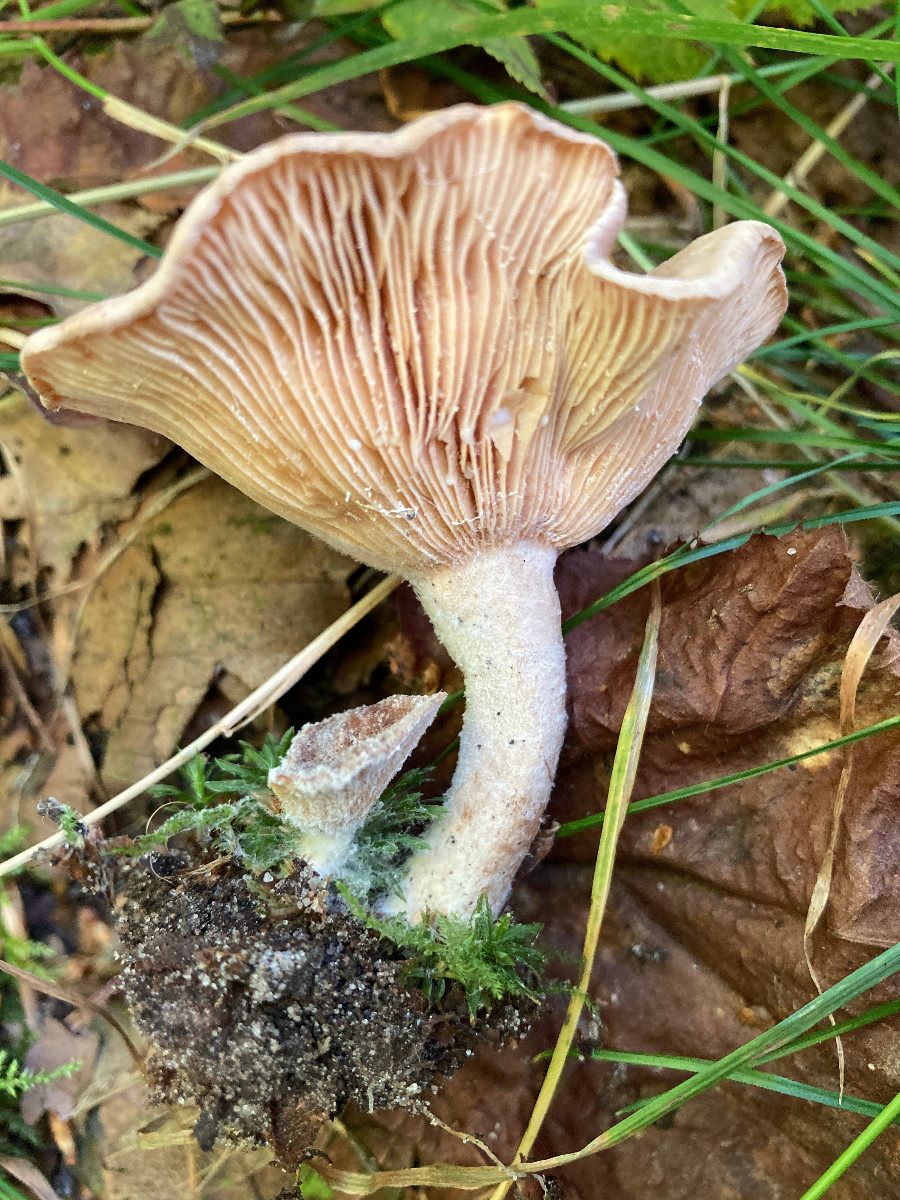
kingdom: Fungi
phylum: Basidiomycota
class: Agaricomycetes
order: Russulales
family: Russulaceae
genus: Lactarius
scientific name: Lactarius glyciosmus
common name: kokos-mælkehat
